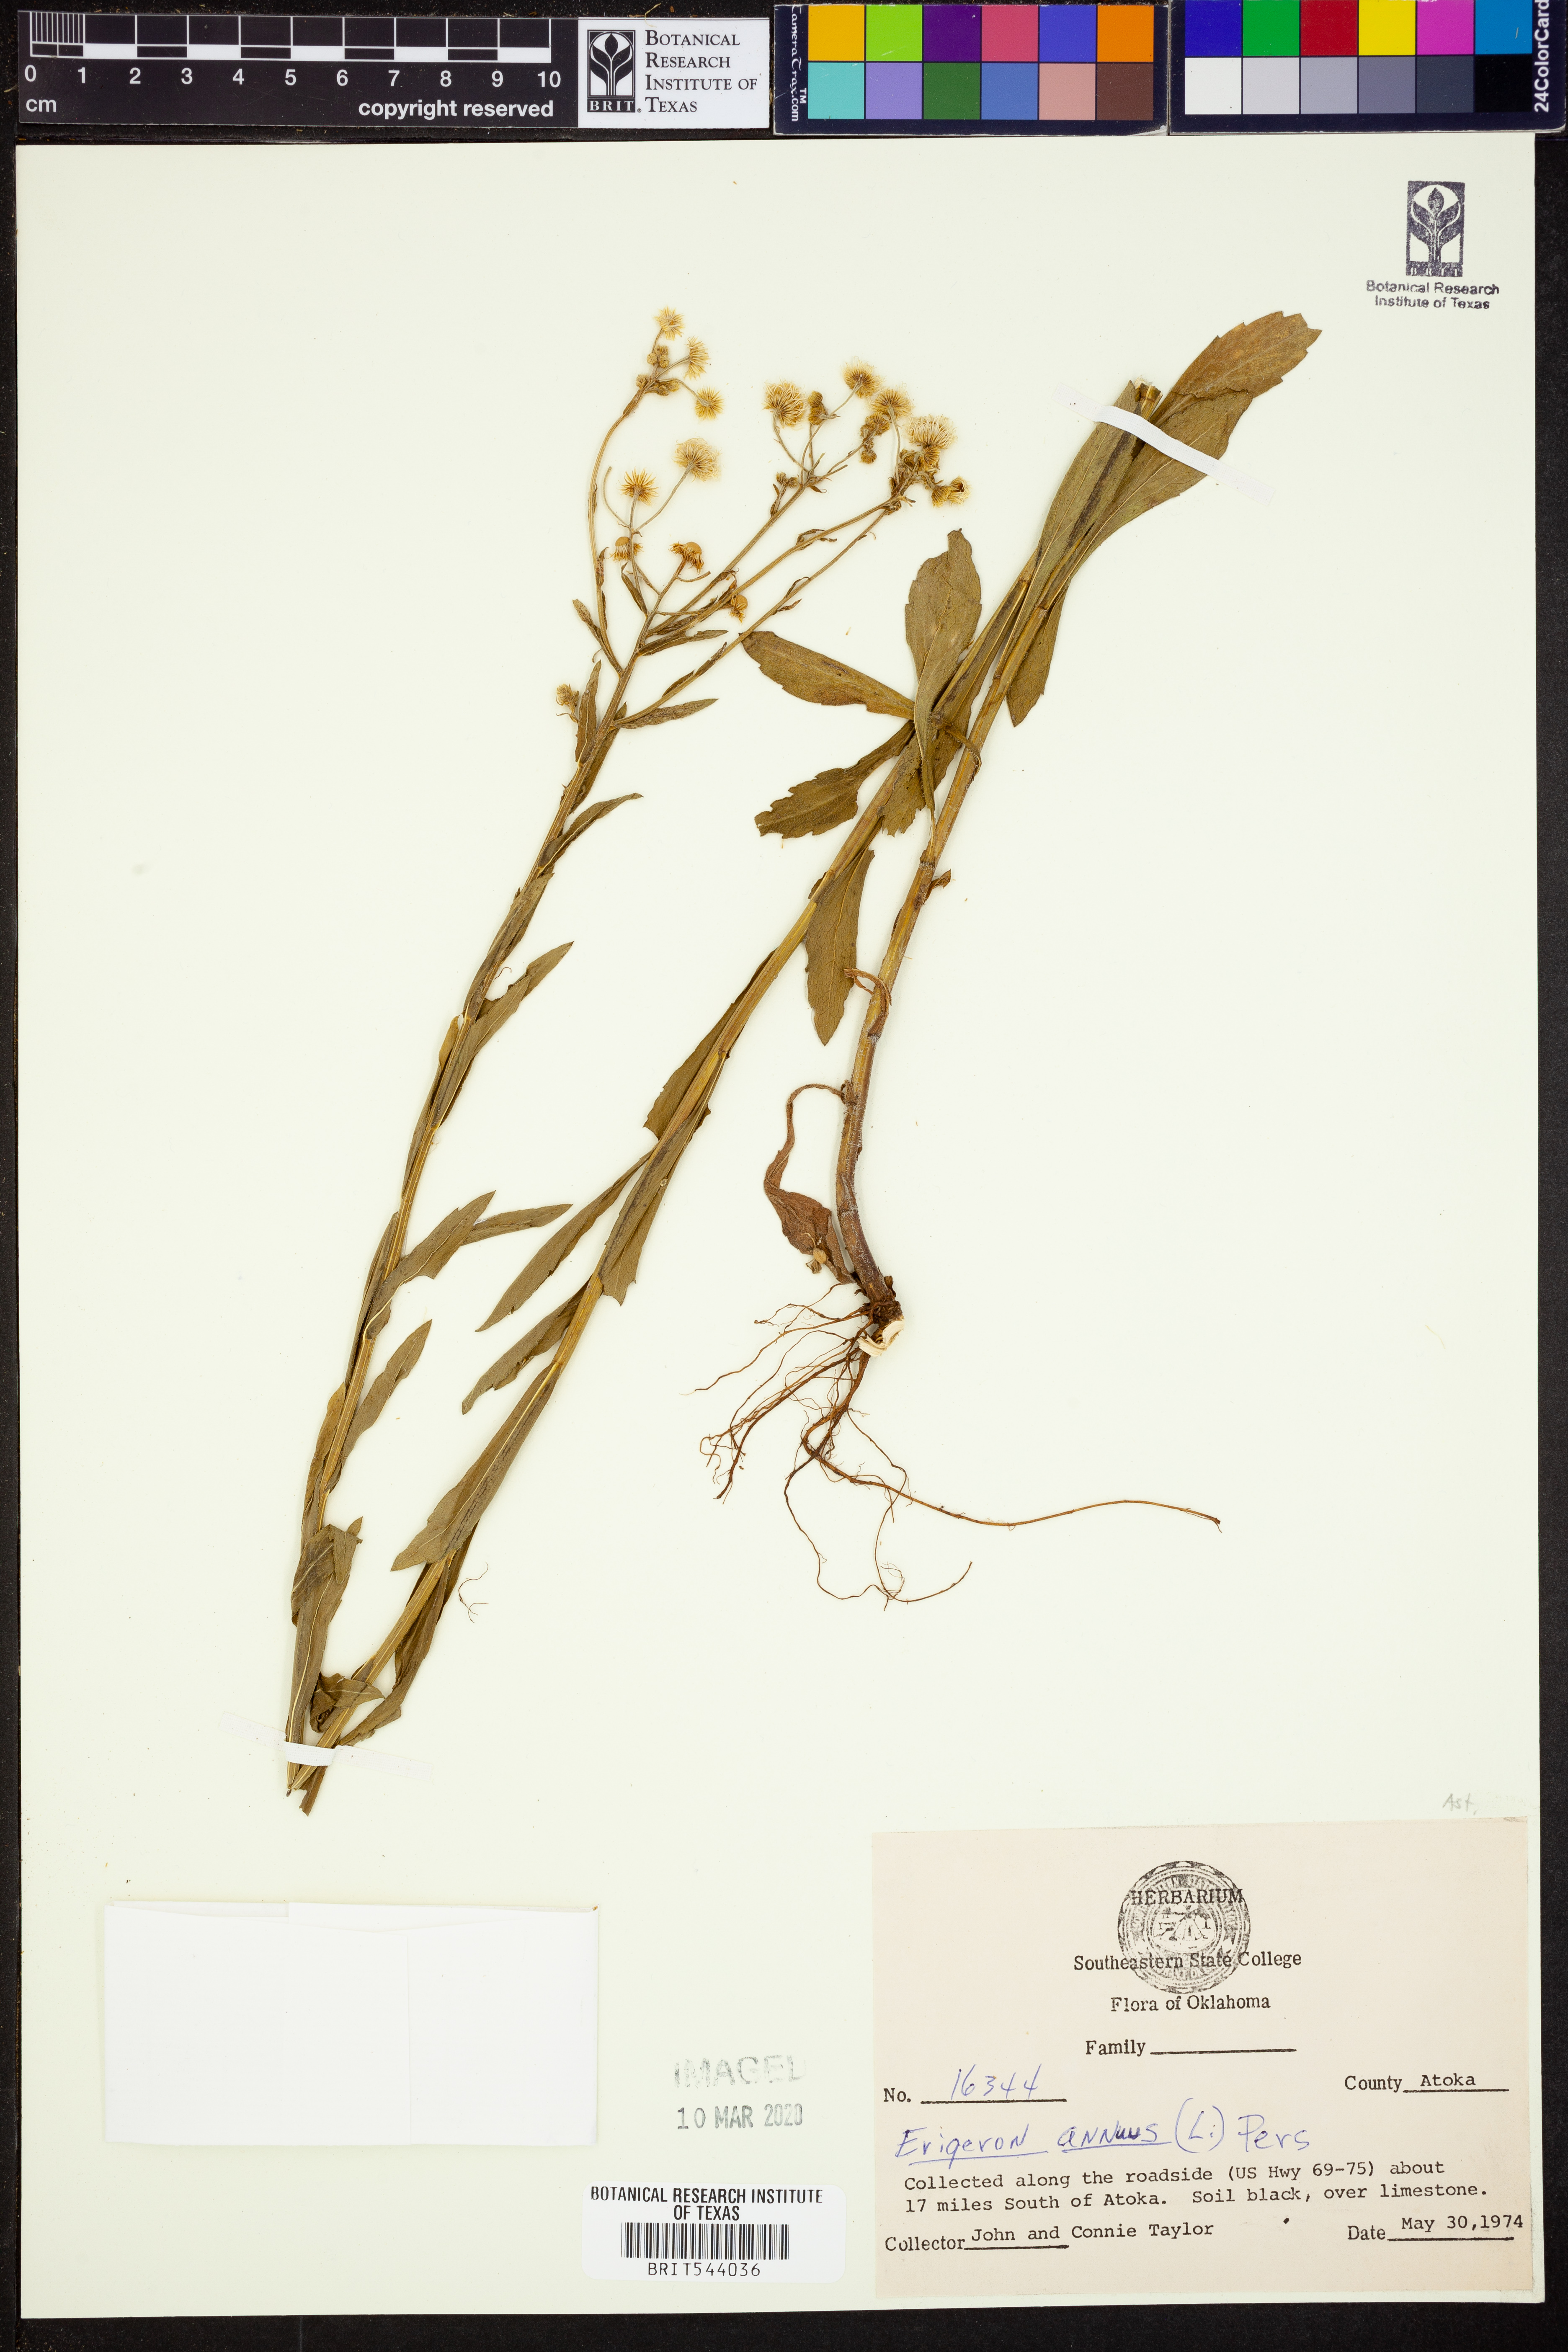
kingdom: Plantae
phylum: Tracheophyta
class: Magnoliopsida
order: Asterales
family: Asteraceae
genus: Erigeron
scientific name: Erigeron annuus
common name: Tall fleabane
